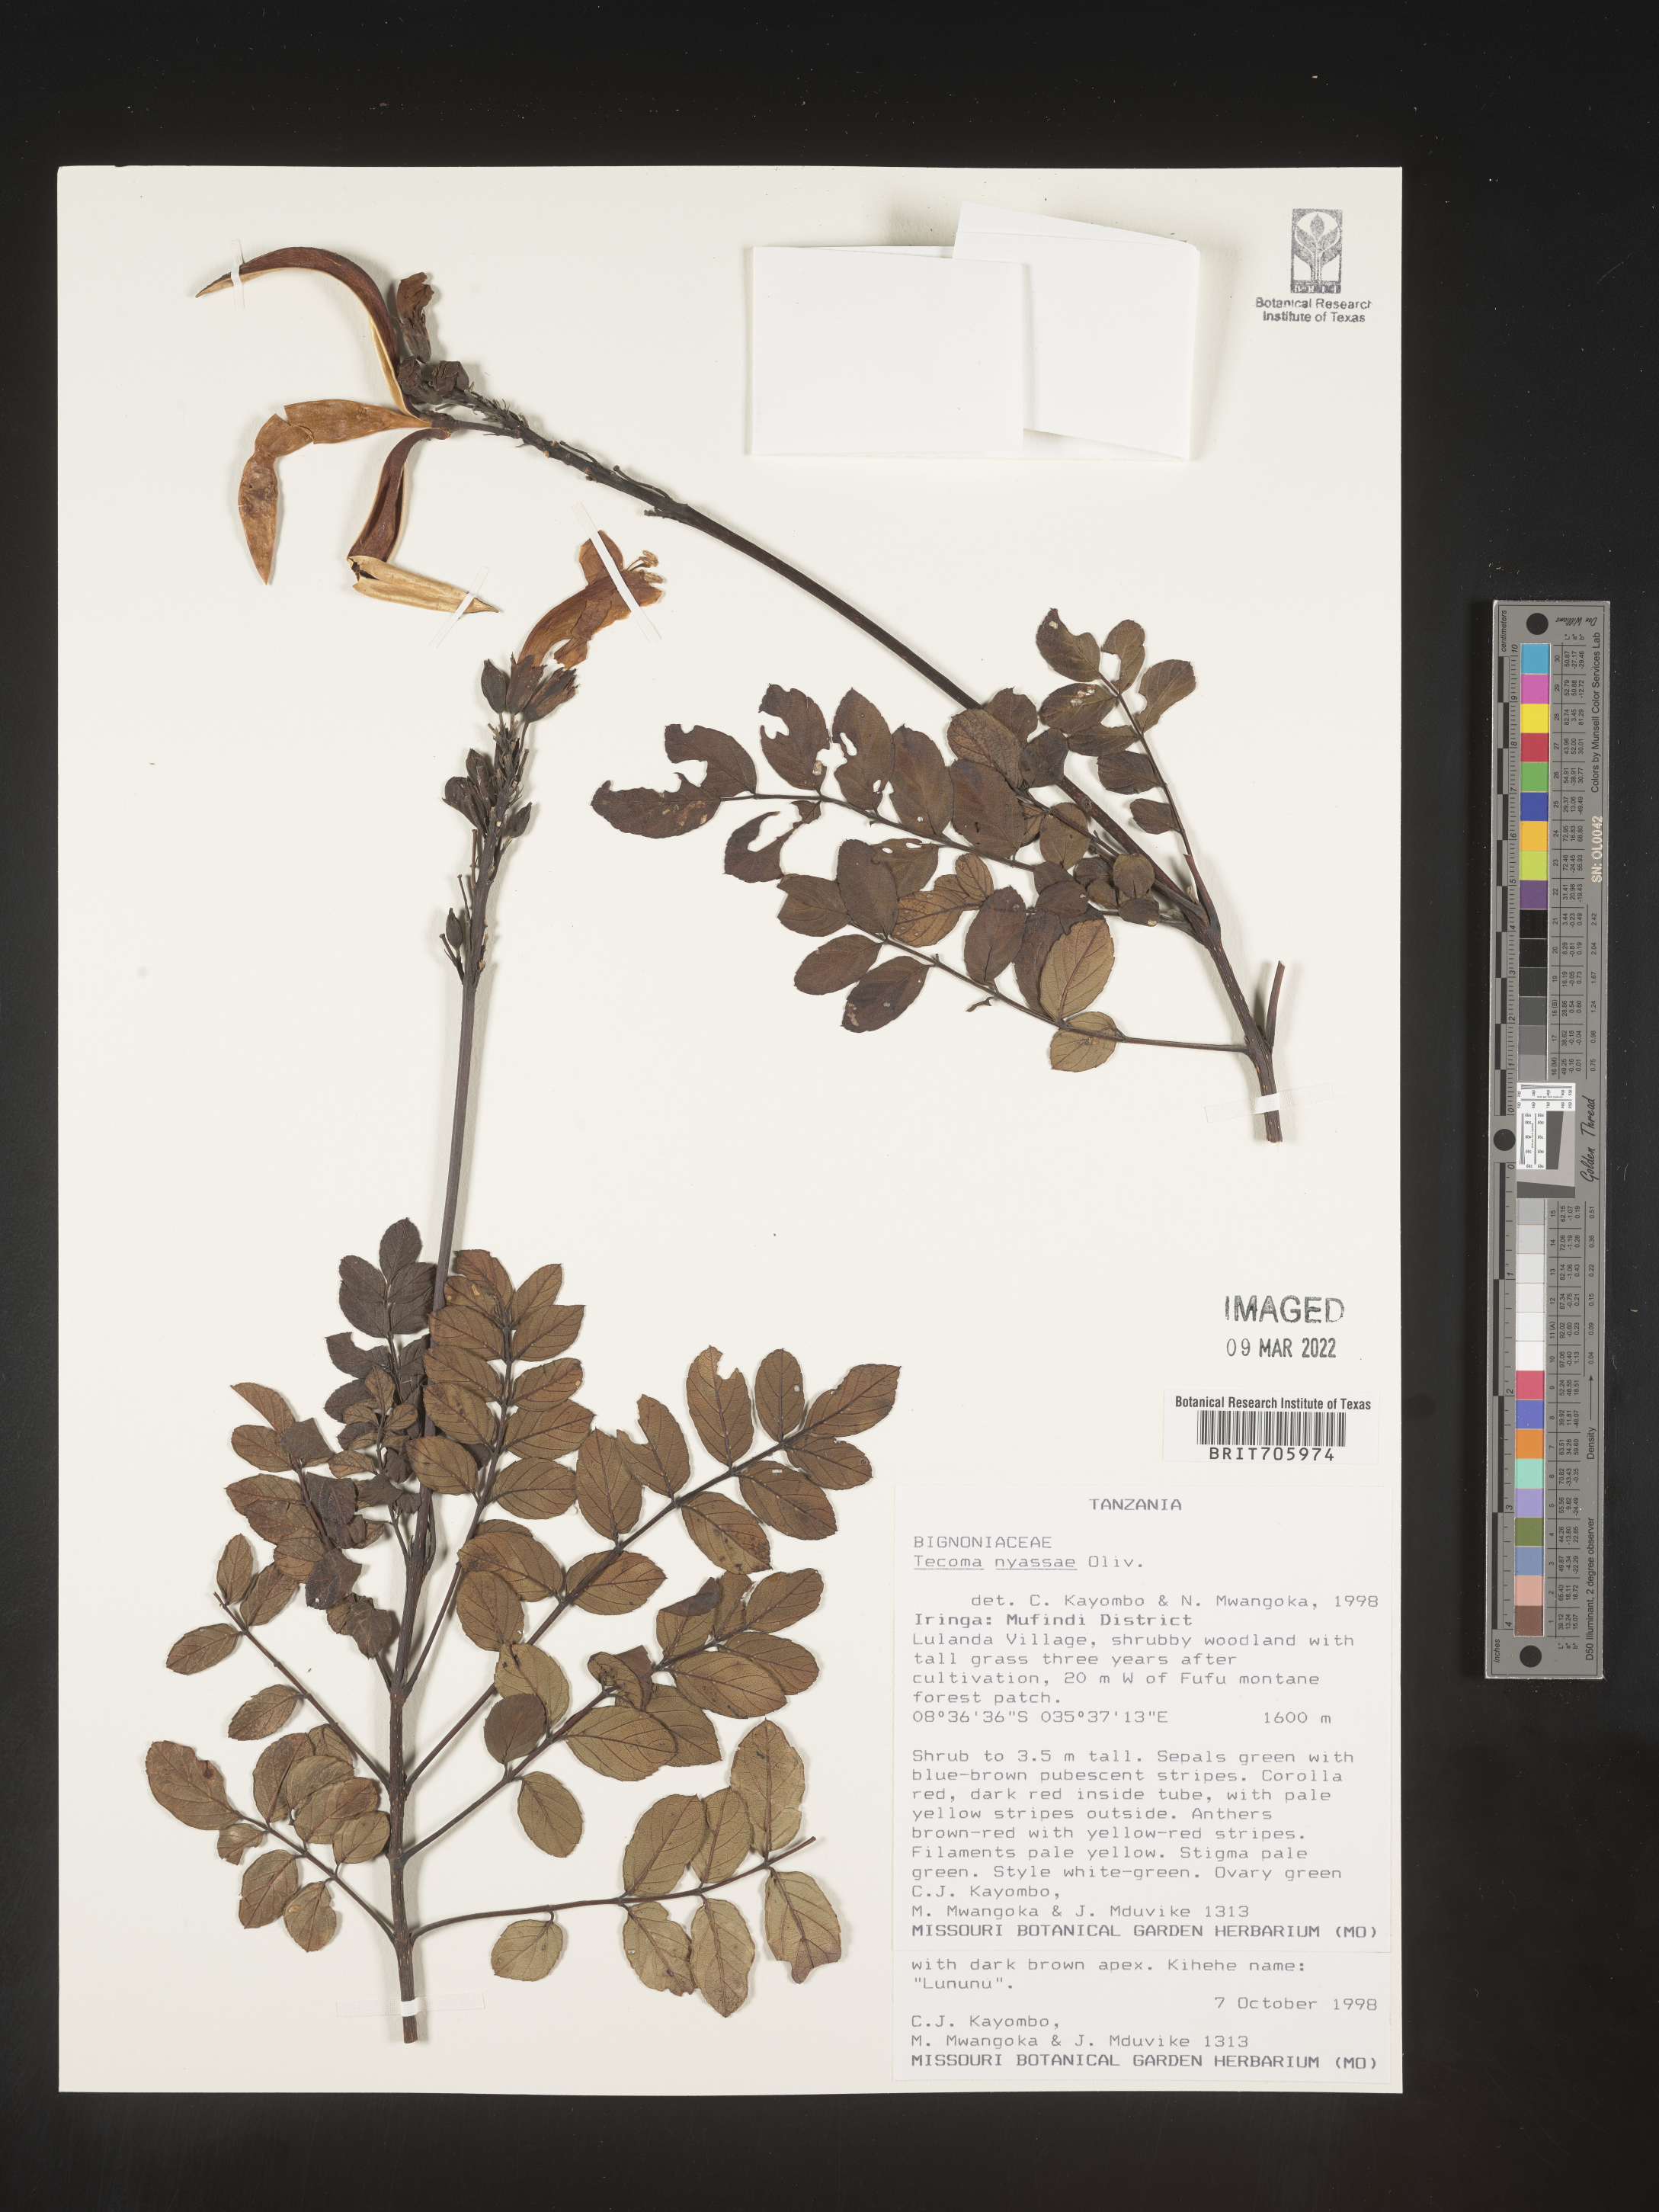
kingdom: Plantae
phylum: Tracheophyta
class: Magnoliopsida
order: Lamiales
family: Bignoniaceae
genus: Tecoma
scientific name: Tecoma
